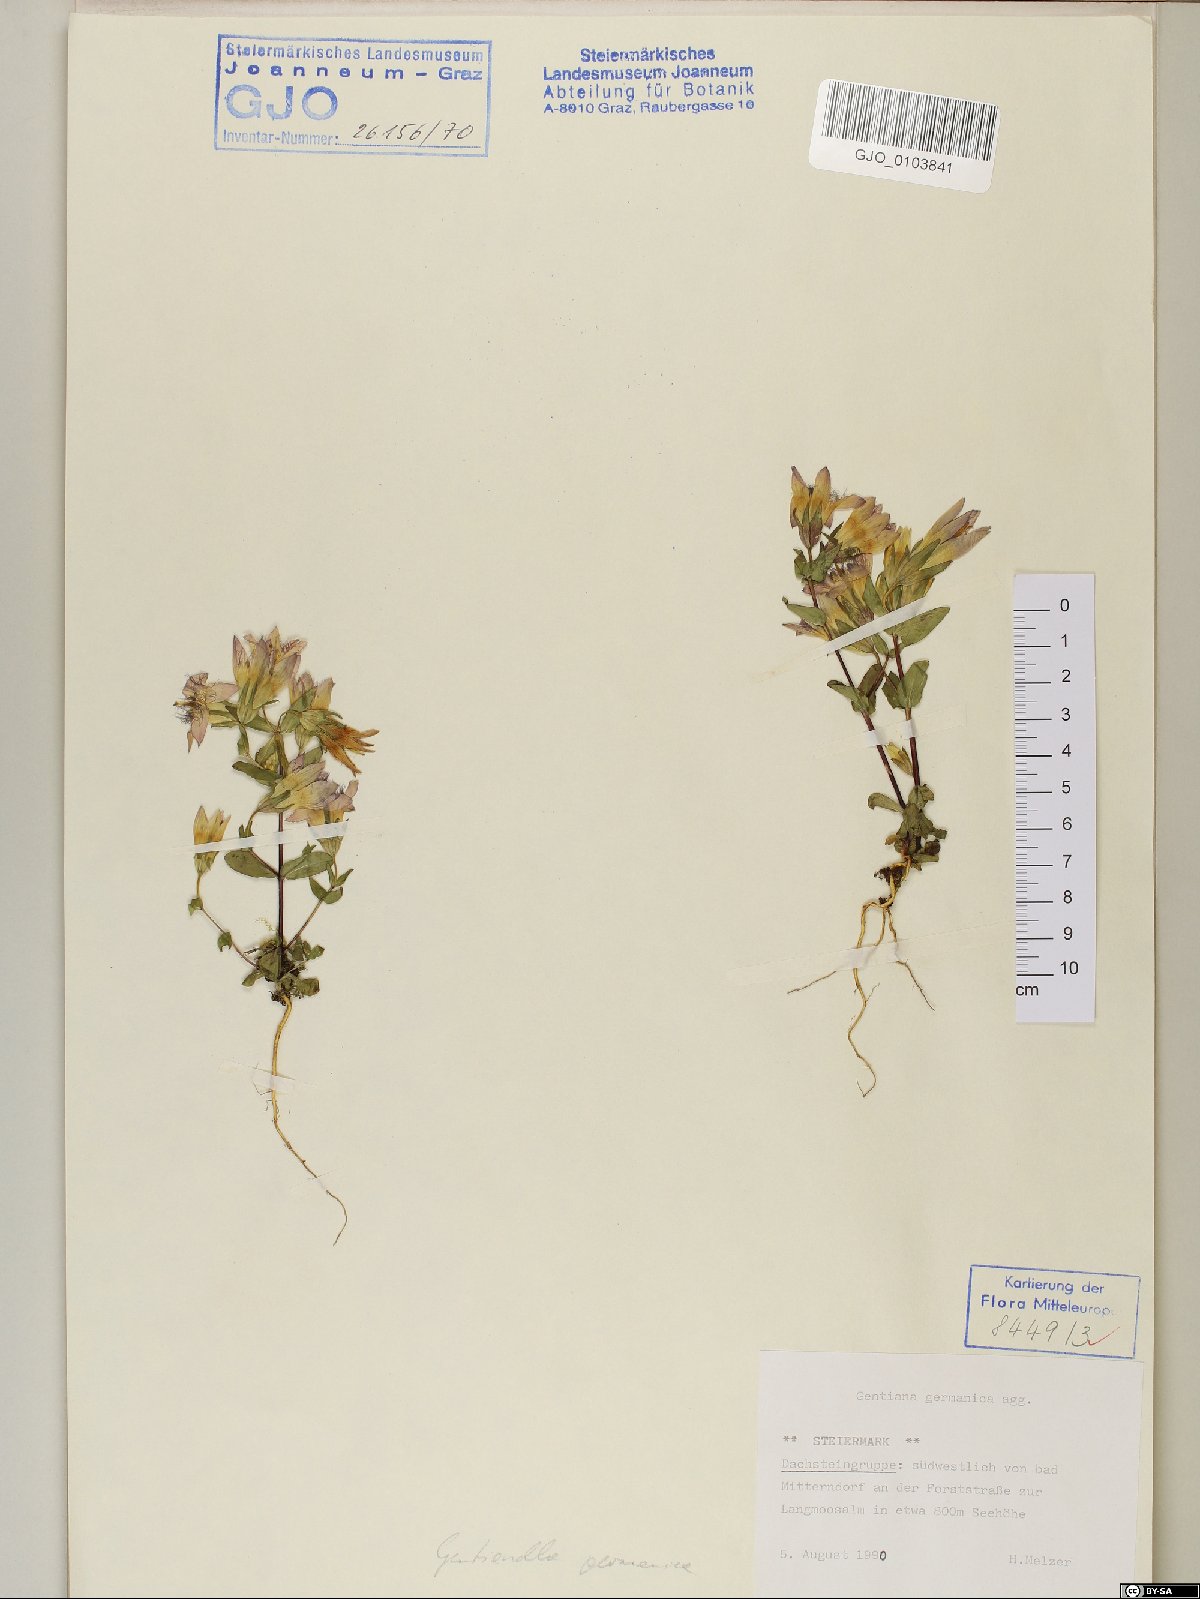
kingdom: Plantae
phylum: Tracheophyta
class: Magnoliopsida
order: Gentianales
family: Gentianaceae
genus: Gentianella
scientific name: Gentianella germanica
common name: Chiltern-gentian
